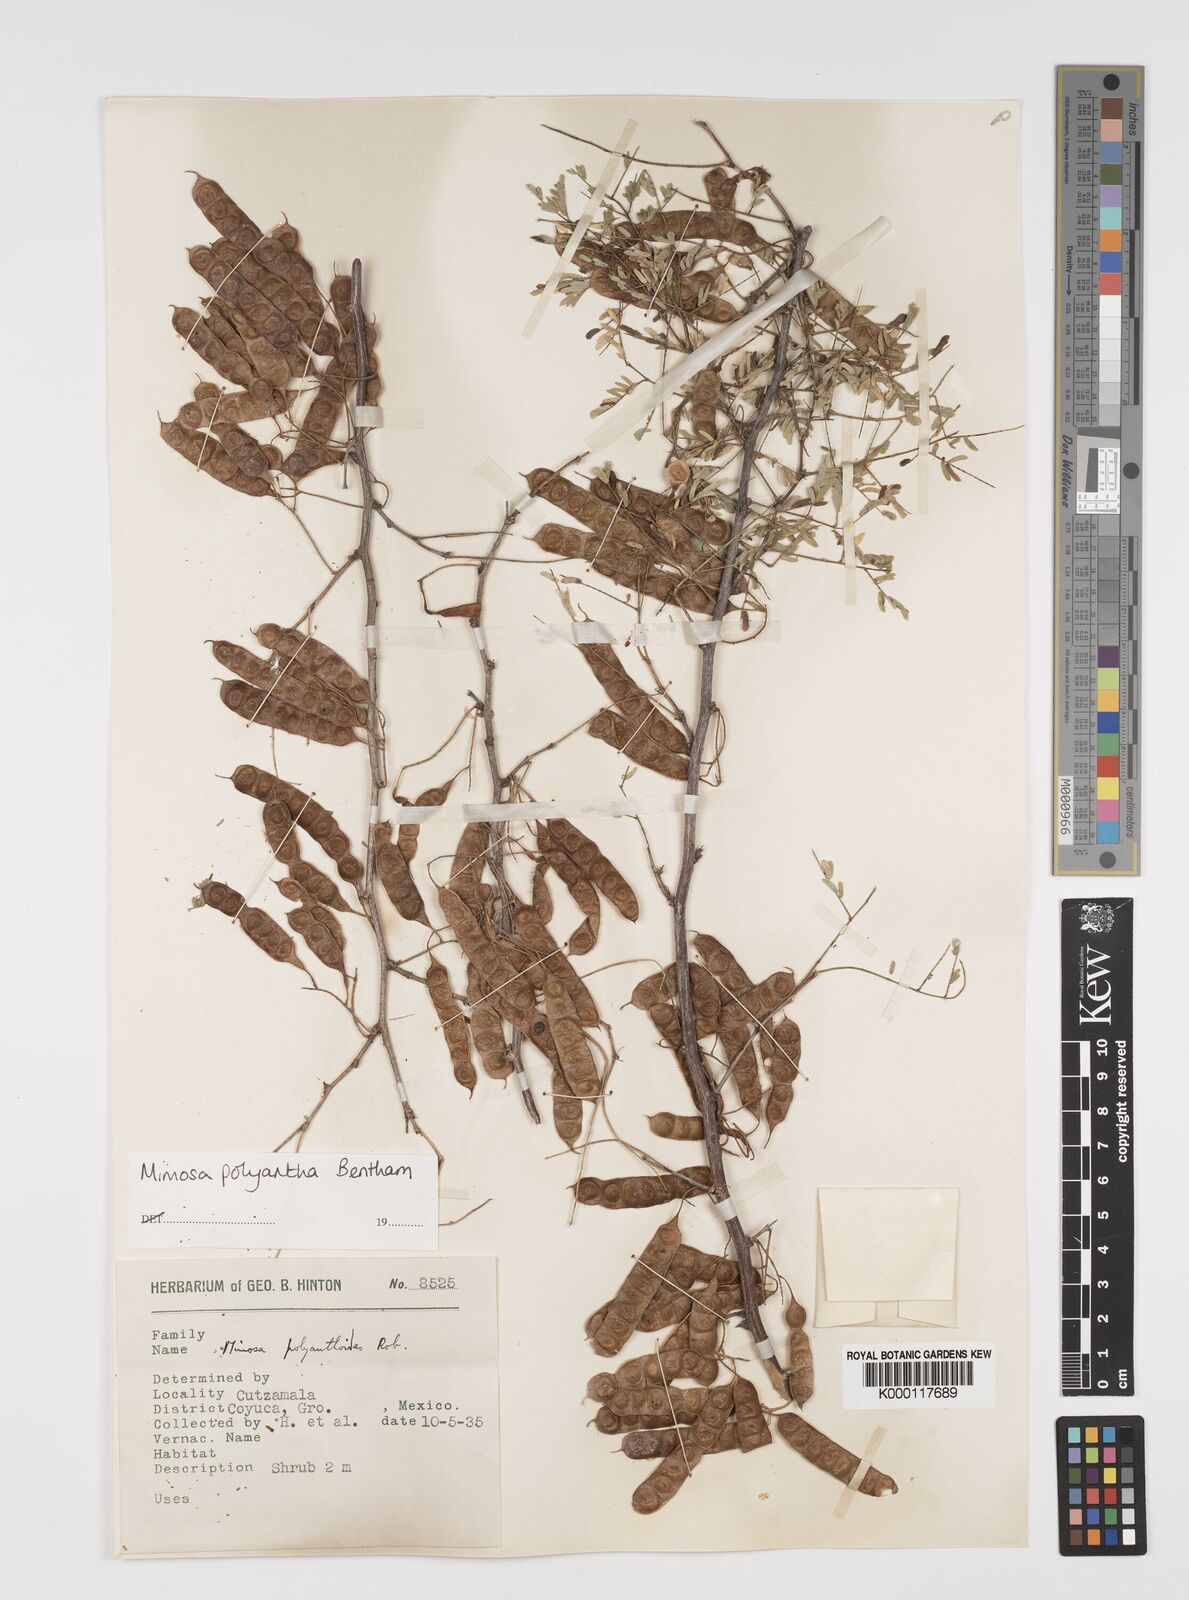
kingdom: Plantae
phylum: Tracheophyta
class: Magnoliopsida
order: Fabales
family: Fabaceae
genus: Mimosa
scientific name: Mimosa polyantha
